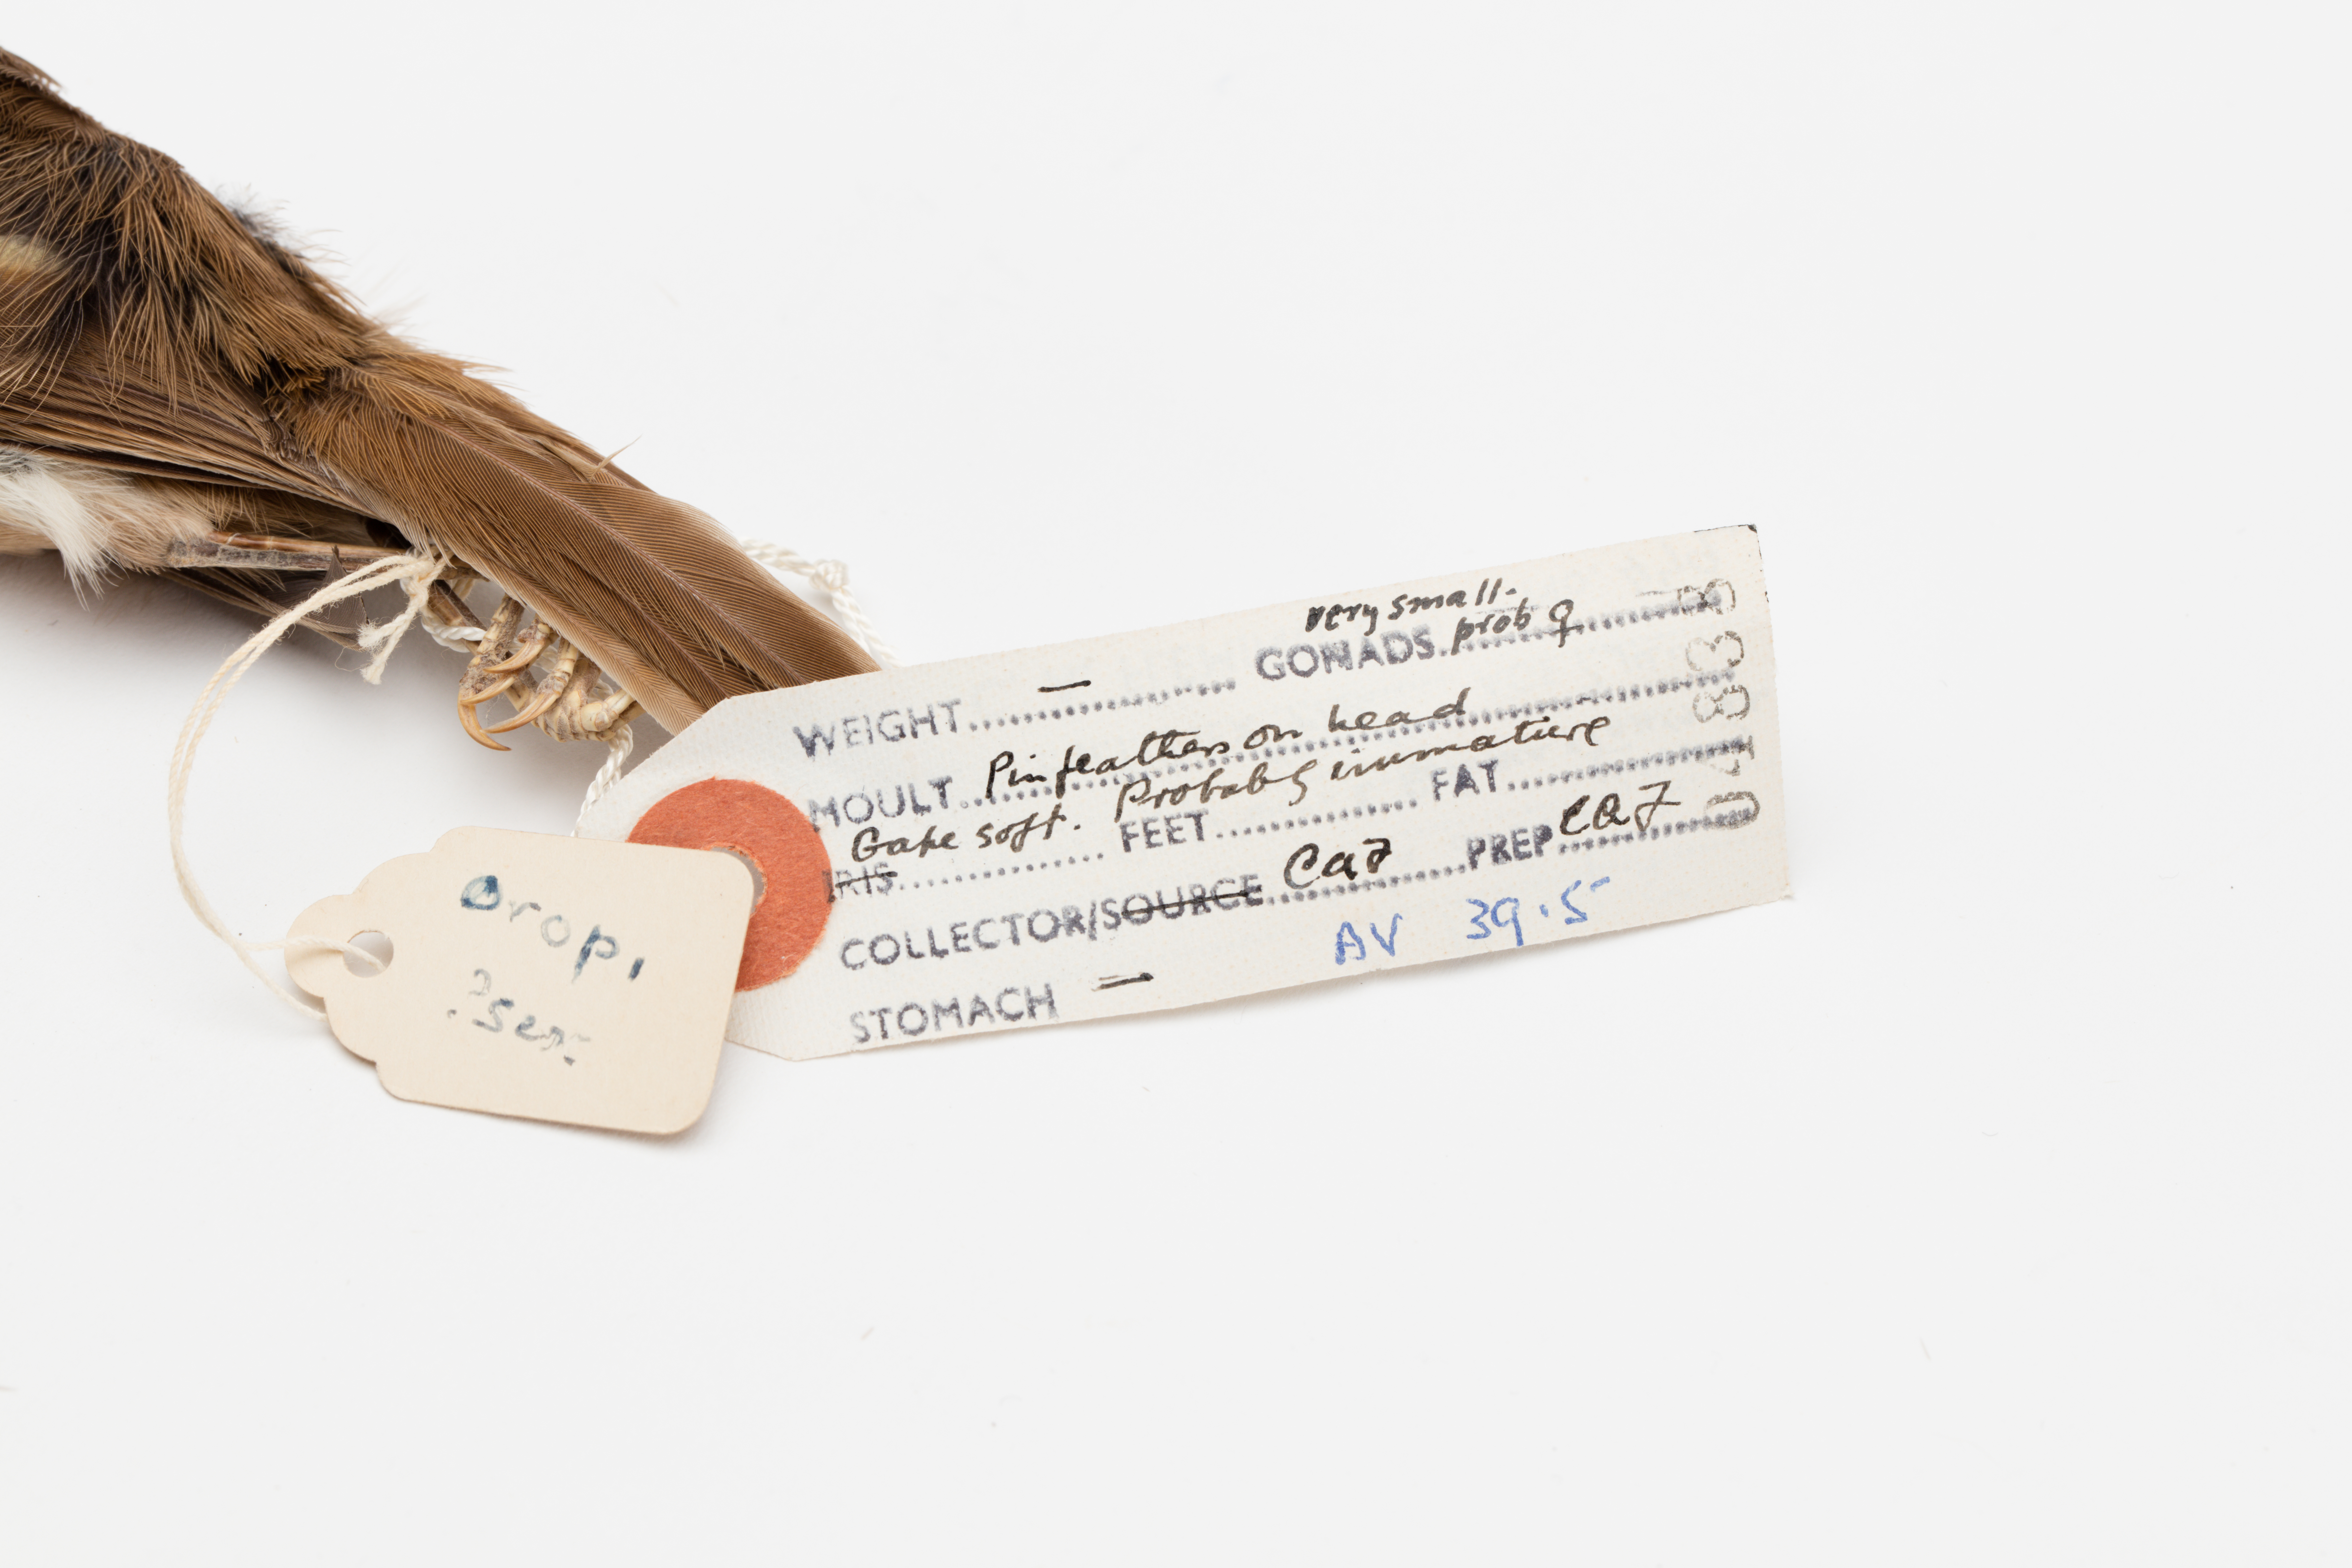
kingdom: Animalia
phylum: Chordata
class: Aves
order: Passeriformes
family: Acanthizidae
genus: Mohoua
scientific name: Mohoua albicilla
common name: Whitehead
